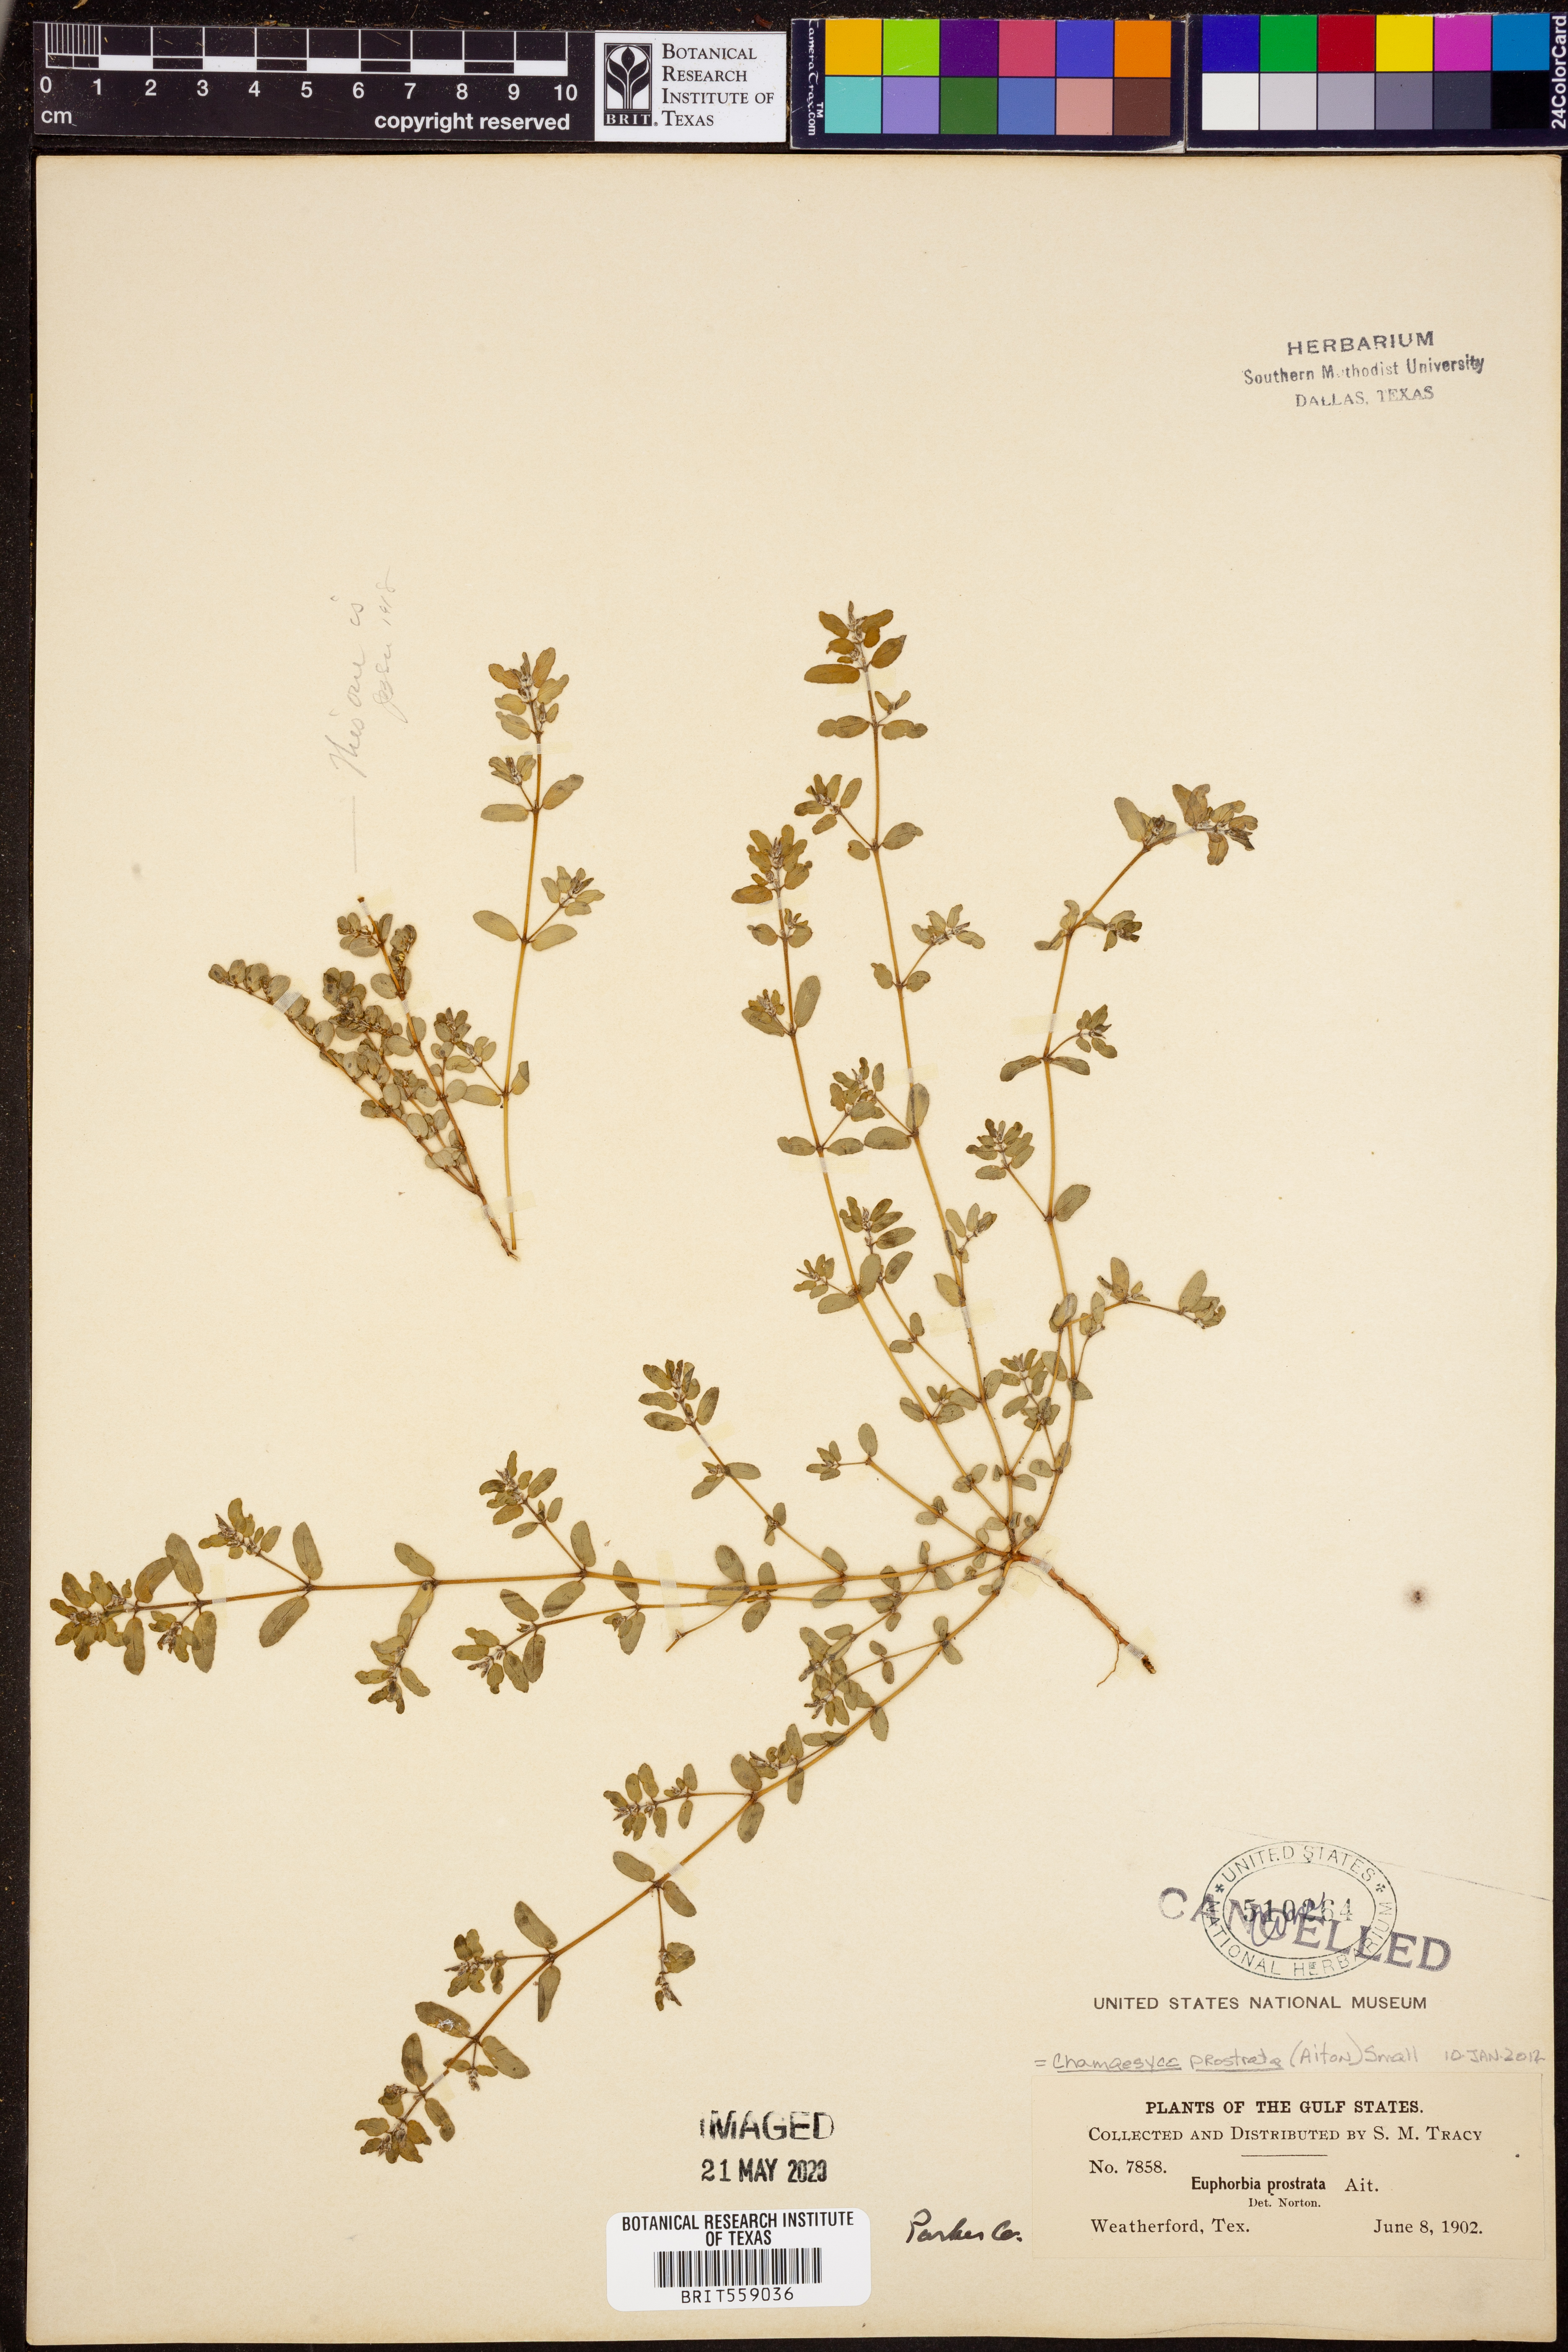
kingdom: Plantae
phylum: Tracheophyta
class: Magnoliopsida
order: Malpighiales
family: Euphorbiaceae
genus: Euphorbia
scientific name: Euphorbia prostrata
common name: Prostrate sandmat
